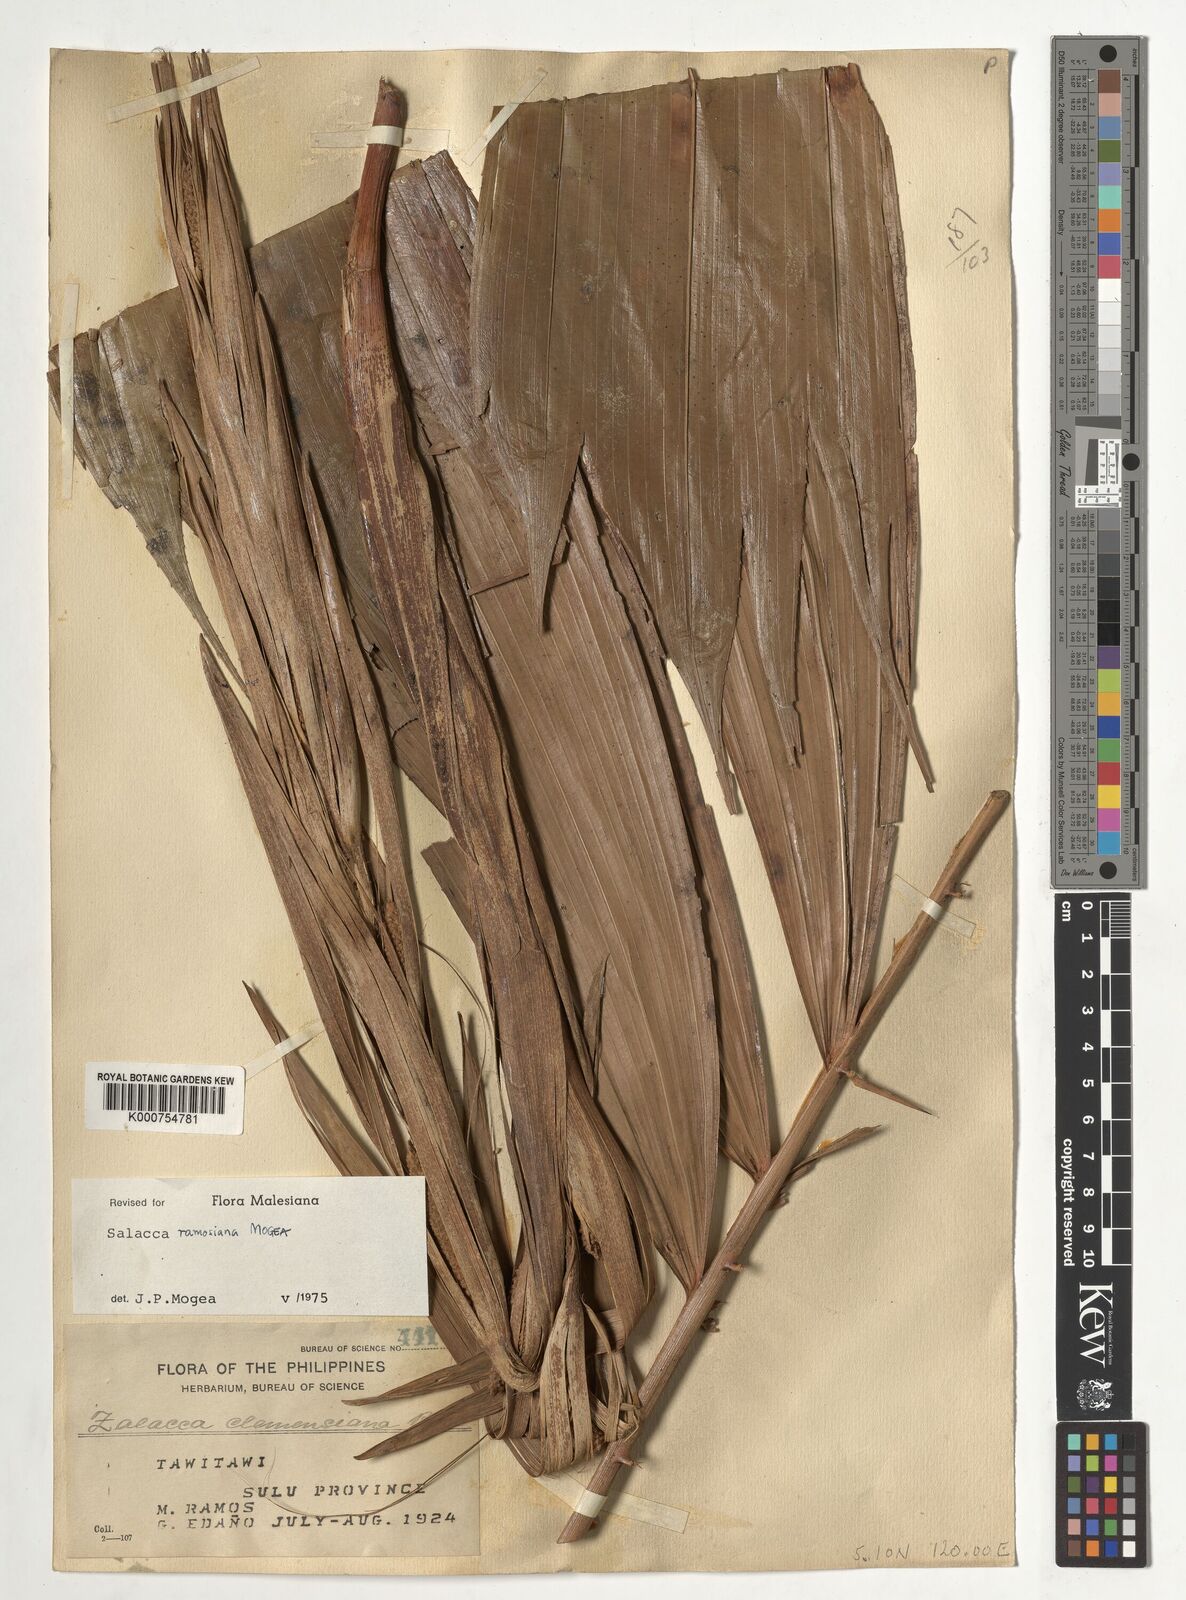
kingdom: Plantae
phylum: Tracheophyta
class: Liliopsida
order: Arecales
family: Arecaceae
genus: Salacca
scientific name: Salacca ramosiana
